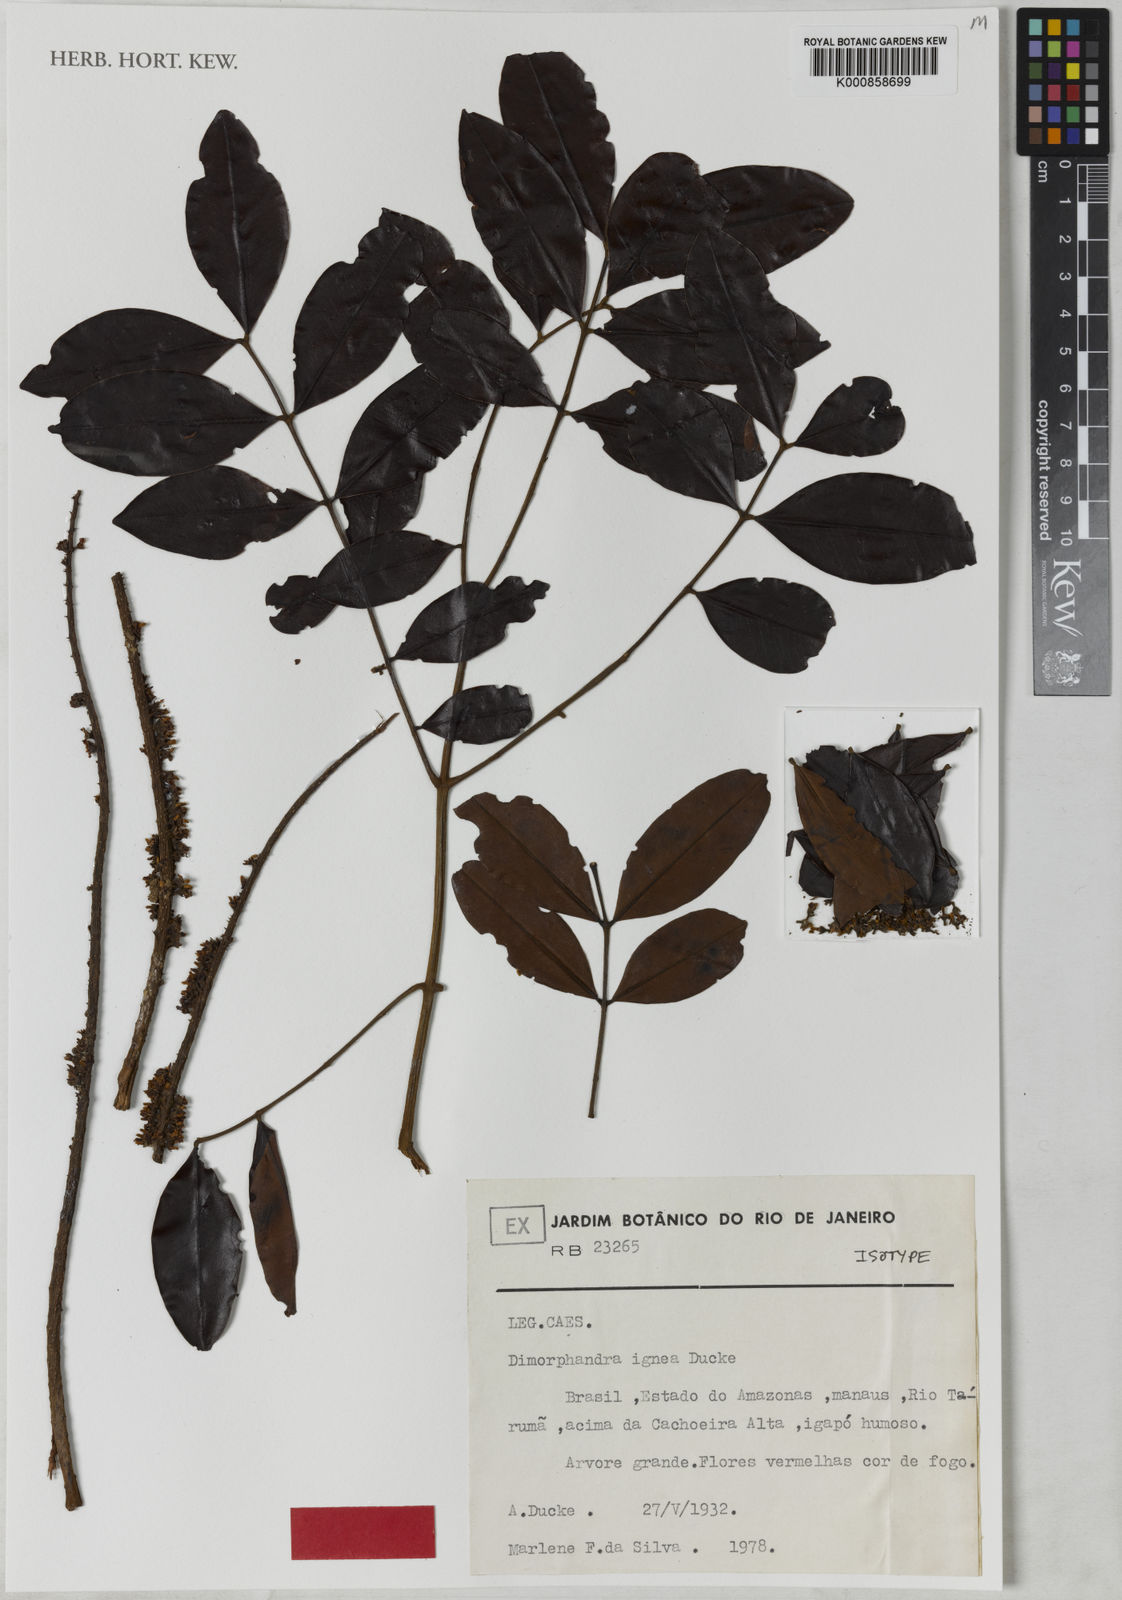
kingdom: Plantae
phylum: Tracheophyta
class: Magnoliopsida
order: Fabales
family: Fabaceae
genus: Dimorphandra
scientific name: Dimorphandra ignea
